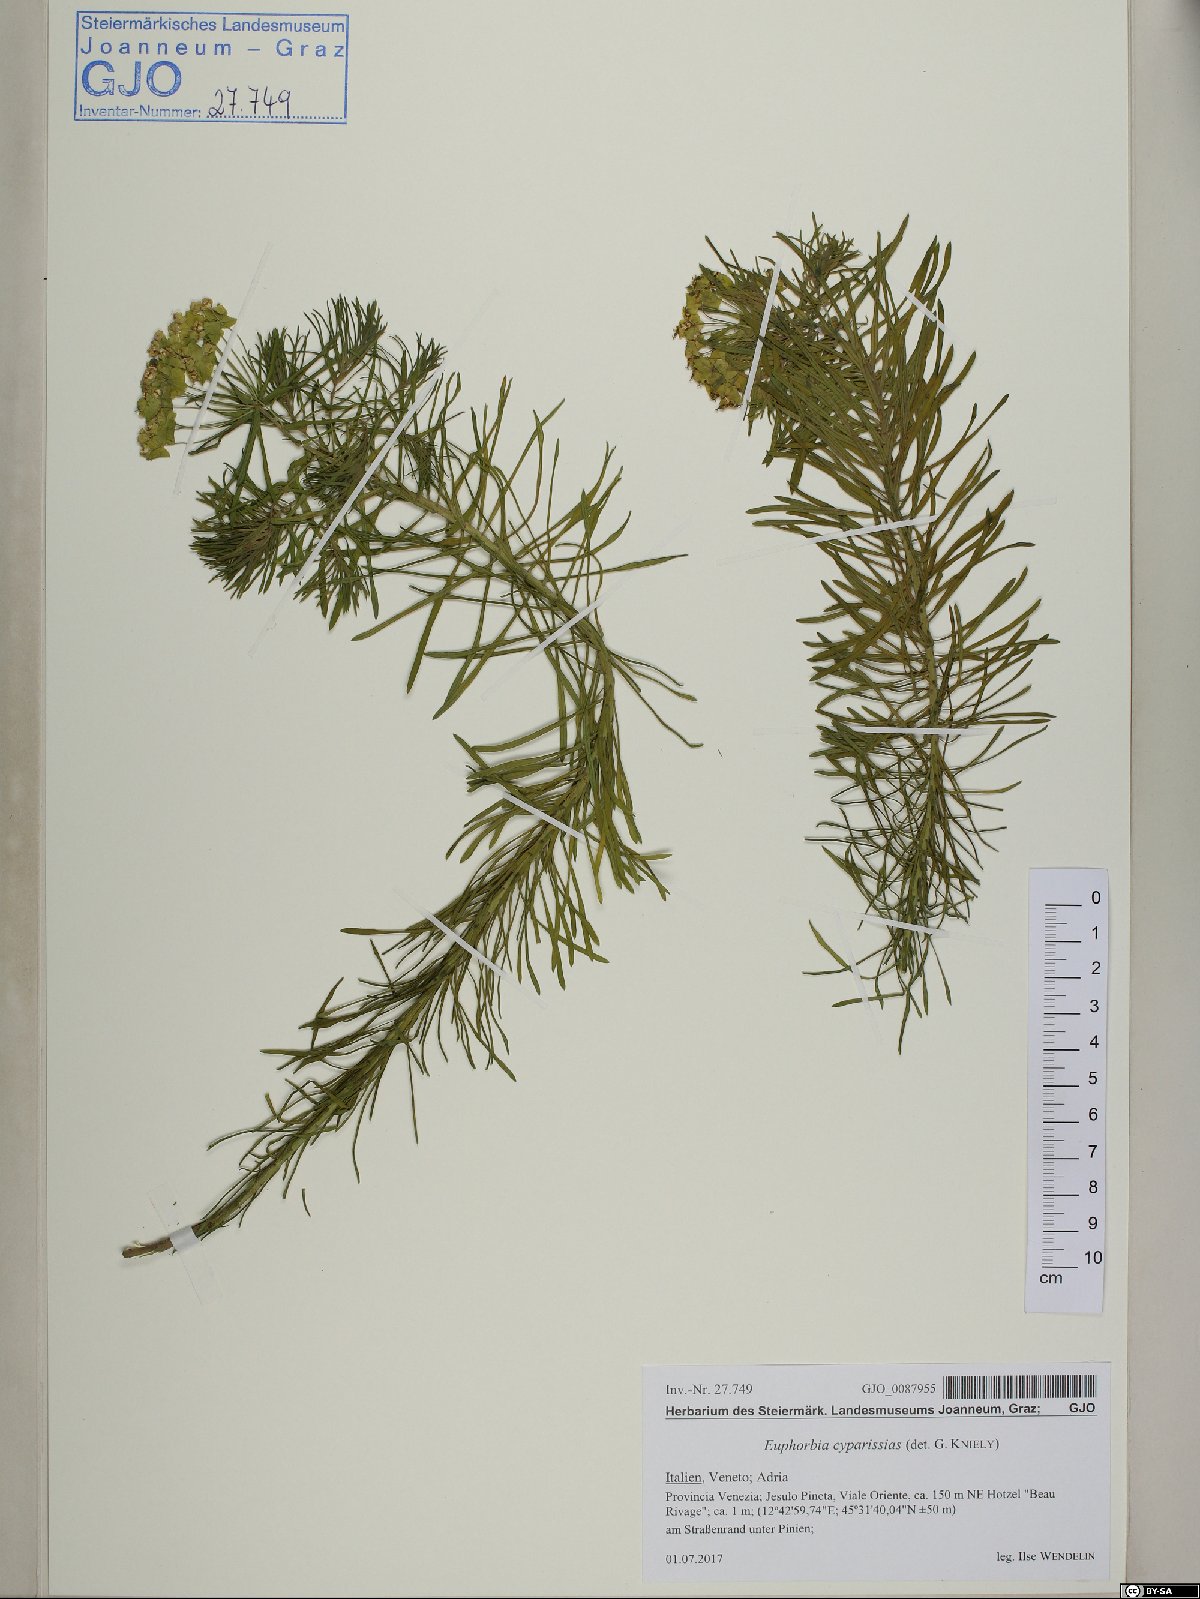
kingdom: Plantae
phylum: Tracheophyta
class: Magnoliopsida
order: Malpighiales
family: Euphorbiaceae
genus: Euphorbia
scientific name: Euphorbia cyparissias
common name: Cypress spurge
